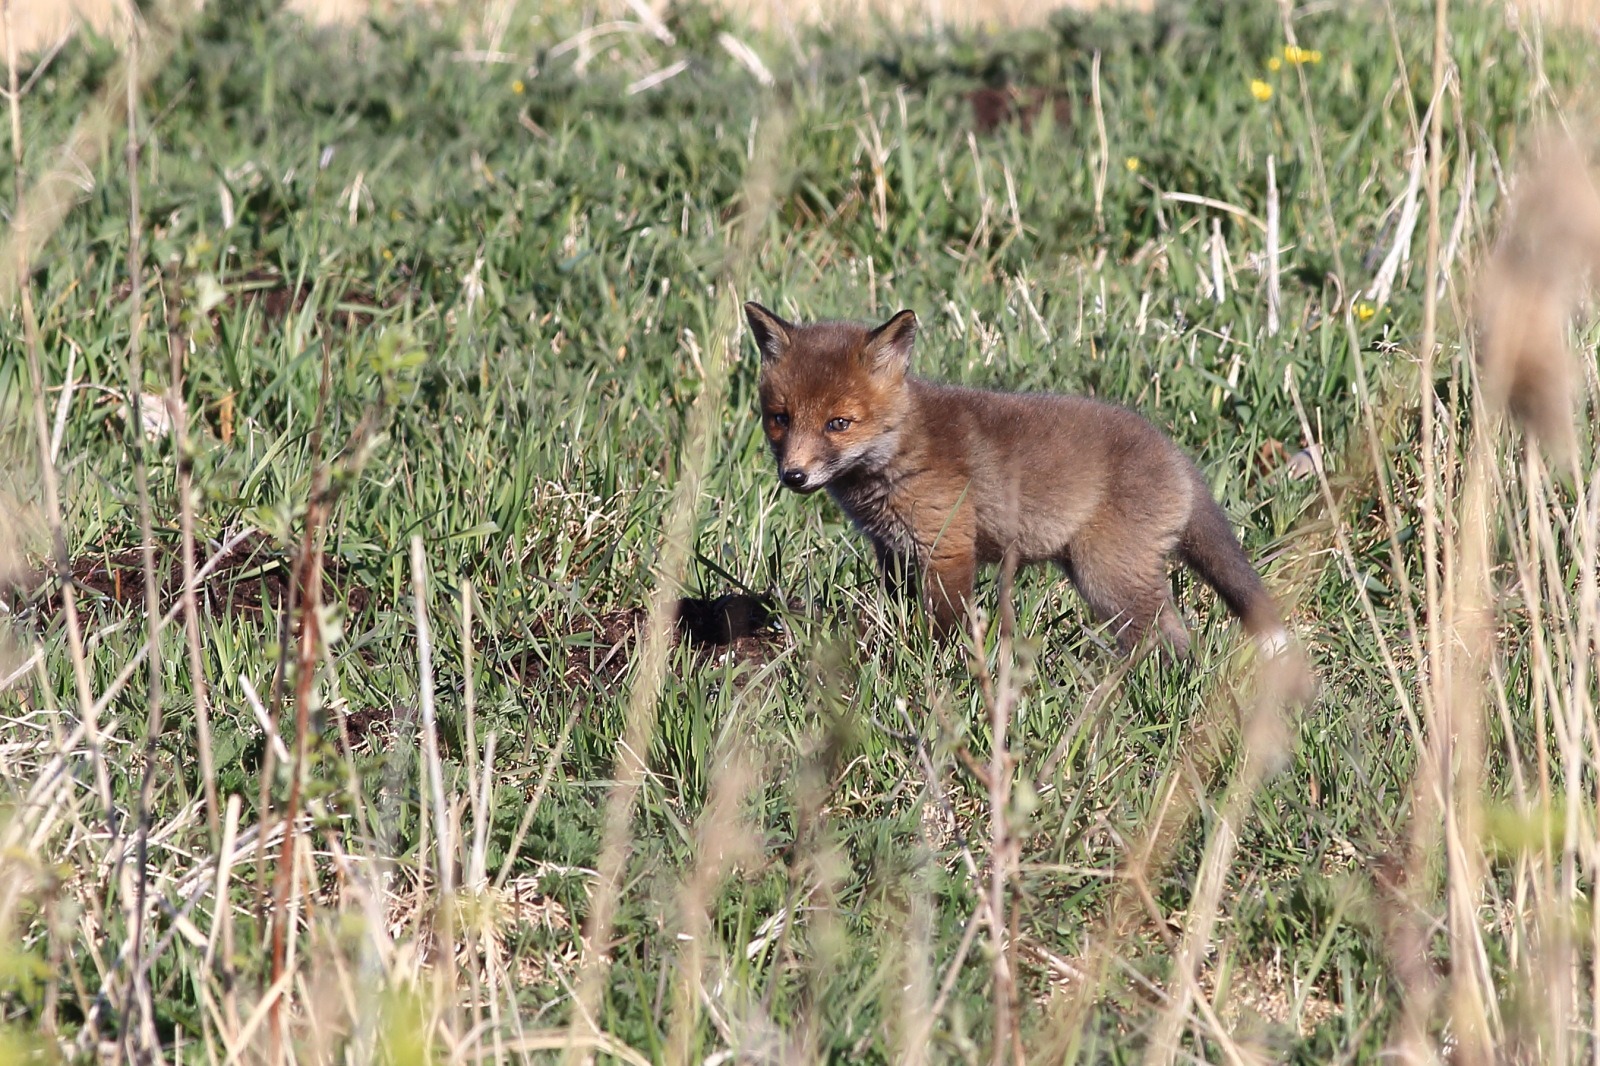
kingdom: Animalia
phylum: Chordata
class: Mammalia
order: Carnivora
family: Canidae
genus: Vulpes
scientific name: Vulpes vulpes
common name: Ræv
